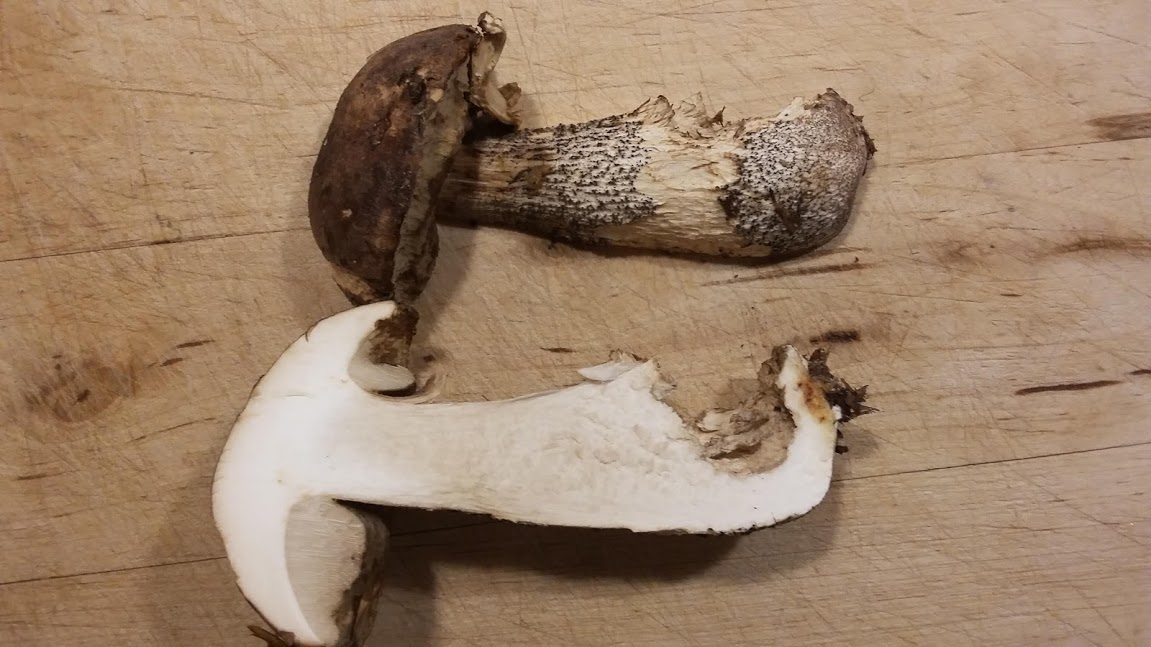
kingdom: Fungi
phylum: Basidiomycota
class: Agaricomycetes
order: Boletales
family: Boletaceae
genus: Leccinum
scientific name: Leccinum scabrum
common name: brun skælrørhat
